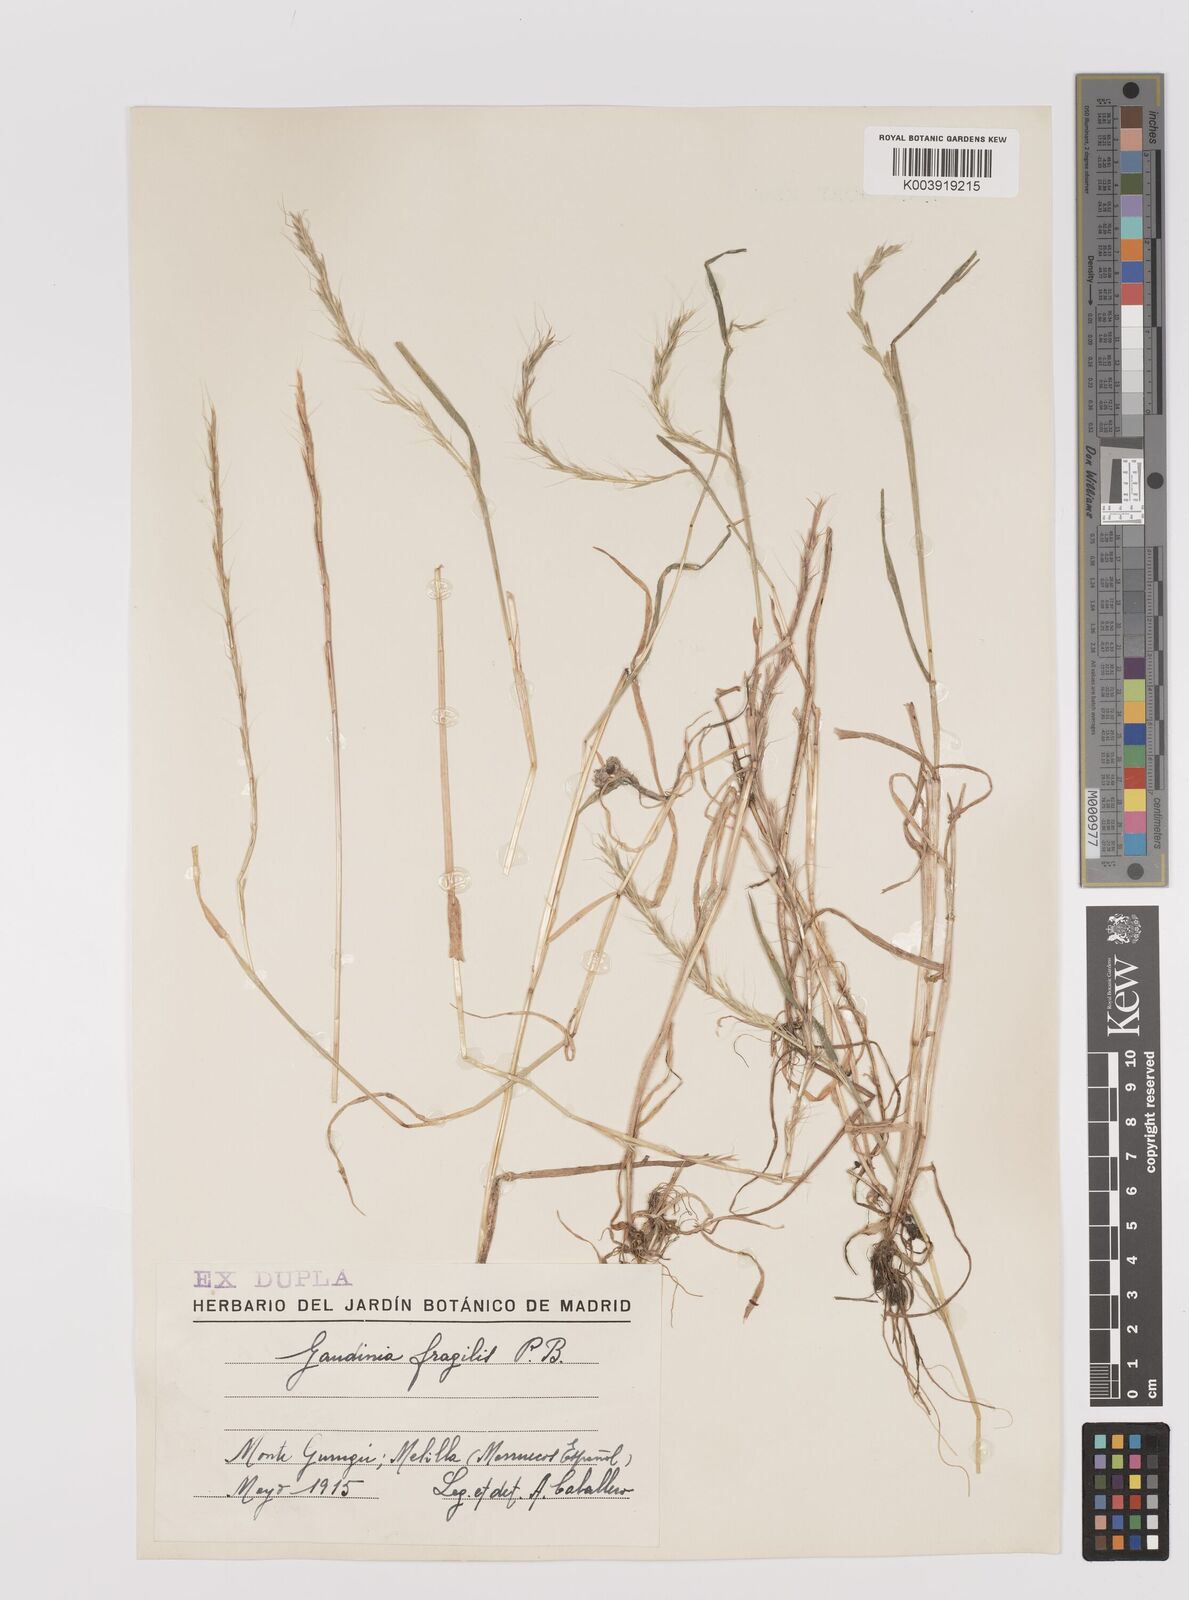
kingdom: Plantae
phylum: Tracheophyta
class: Liliopsida
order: Poales
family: Poaceae
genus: Gaudinia
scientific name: Gaudinia fragilis
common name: French oat-grass
